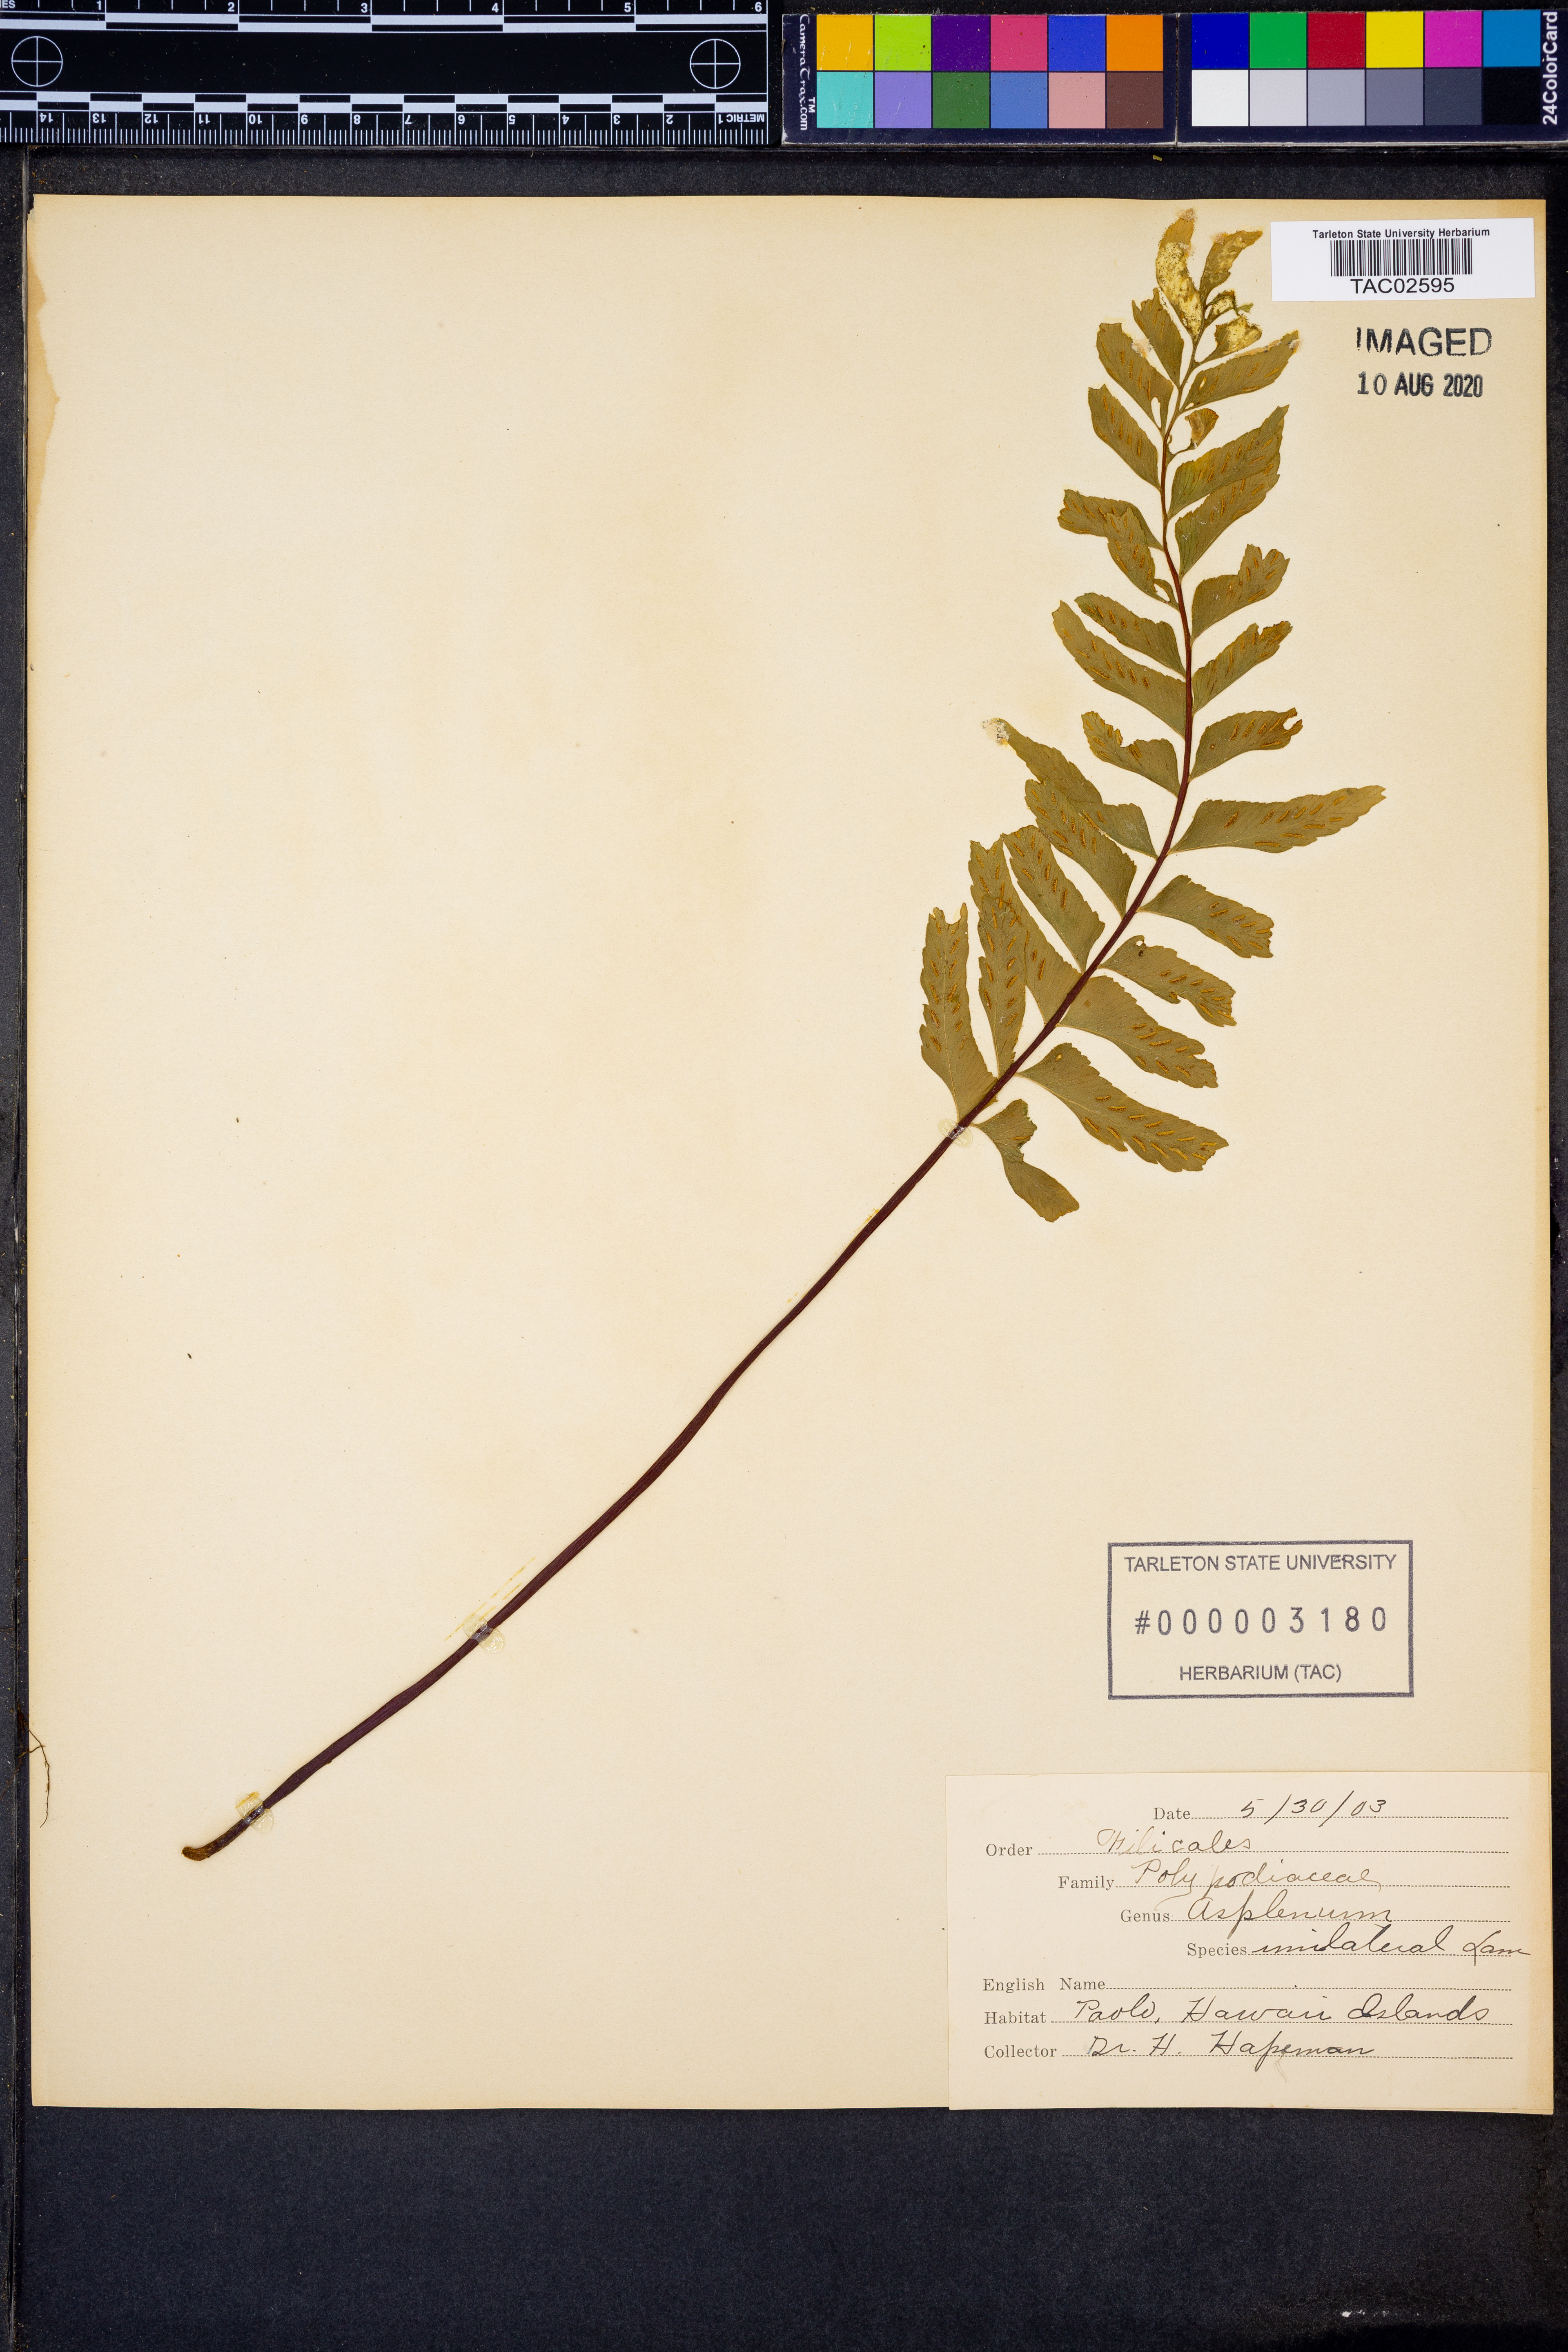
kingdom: Plantae
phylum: Tracheophyta
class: Polypodiopsida
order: Polypodiales
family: Aspleniaceae
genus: Hymenasplenium
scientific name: Hymenasplenium unilaterale
